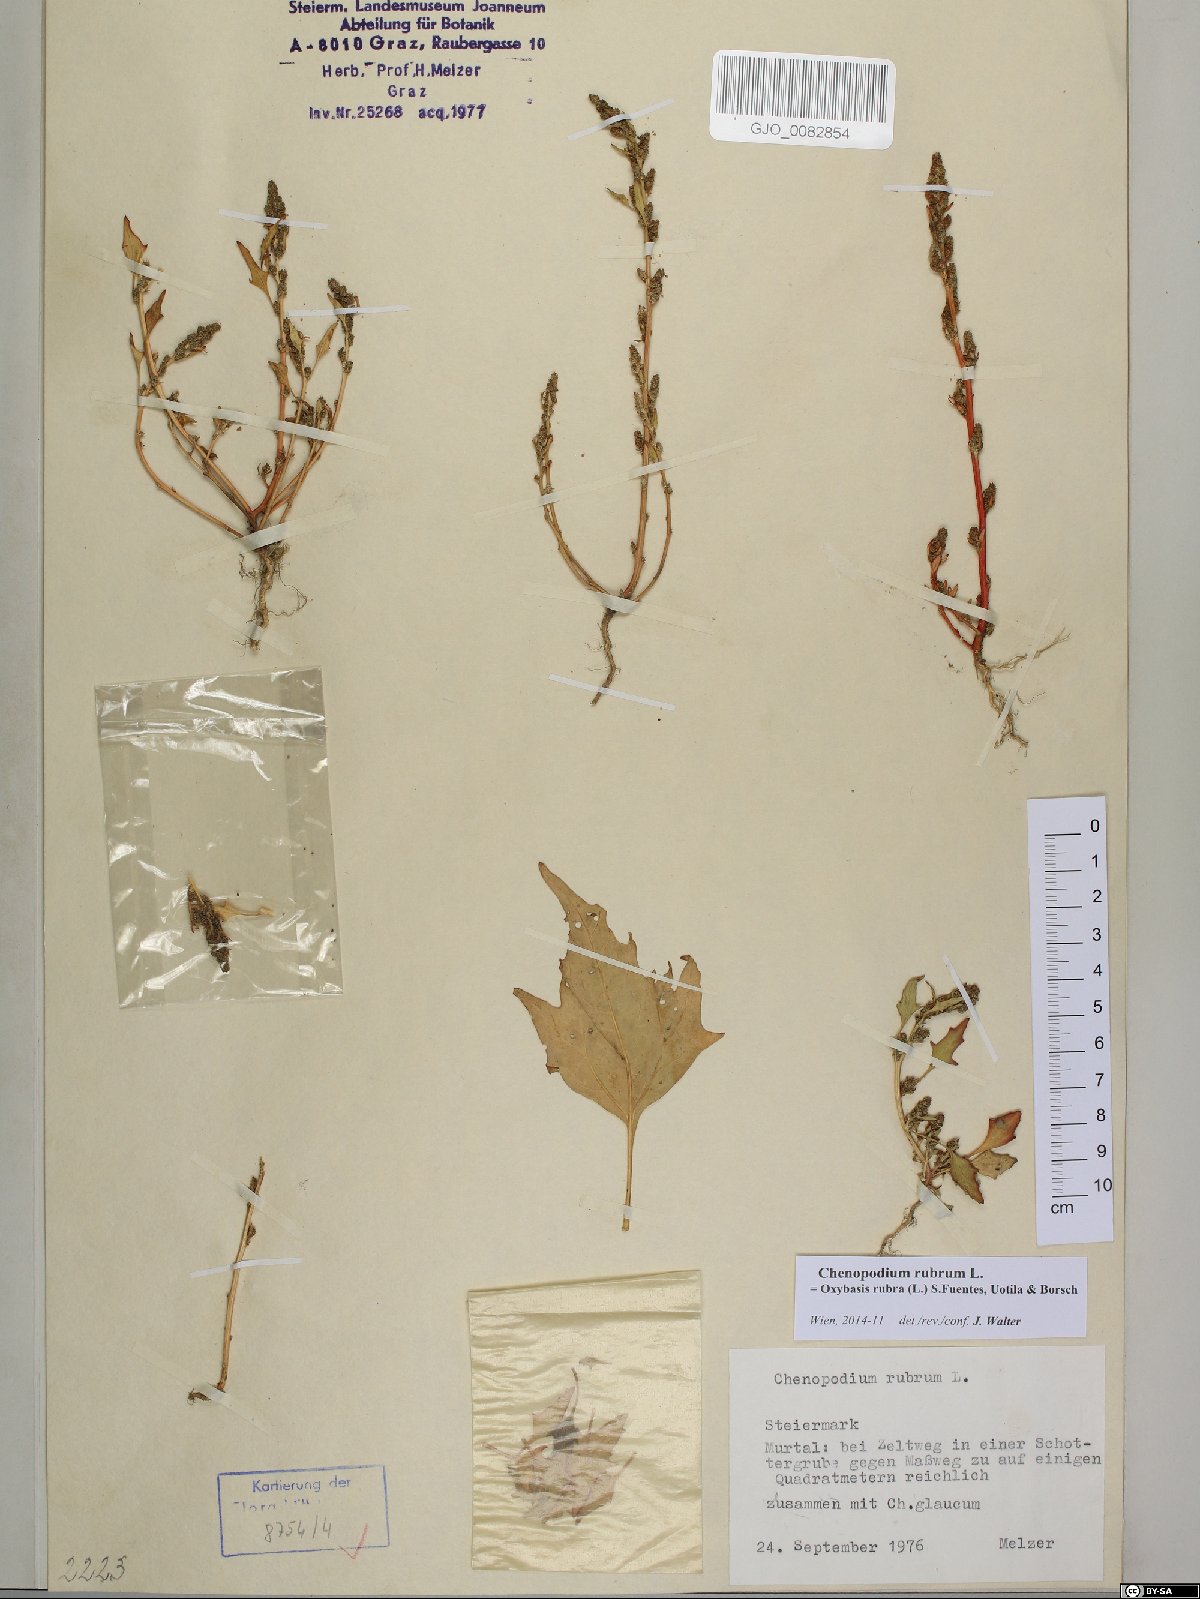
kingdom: Plantae
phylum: Tracheophyta
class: Magnoliopsida
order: Caryophyllales
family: Amaranthaceae
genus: Oxybasis
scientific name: Oxybasis rubra
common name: Red goosefoot
